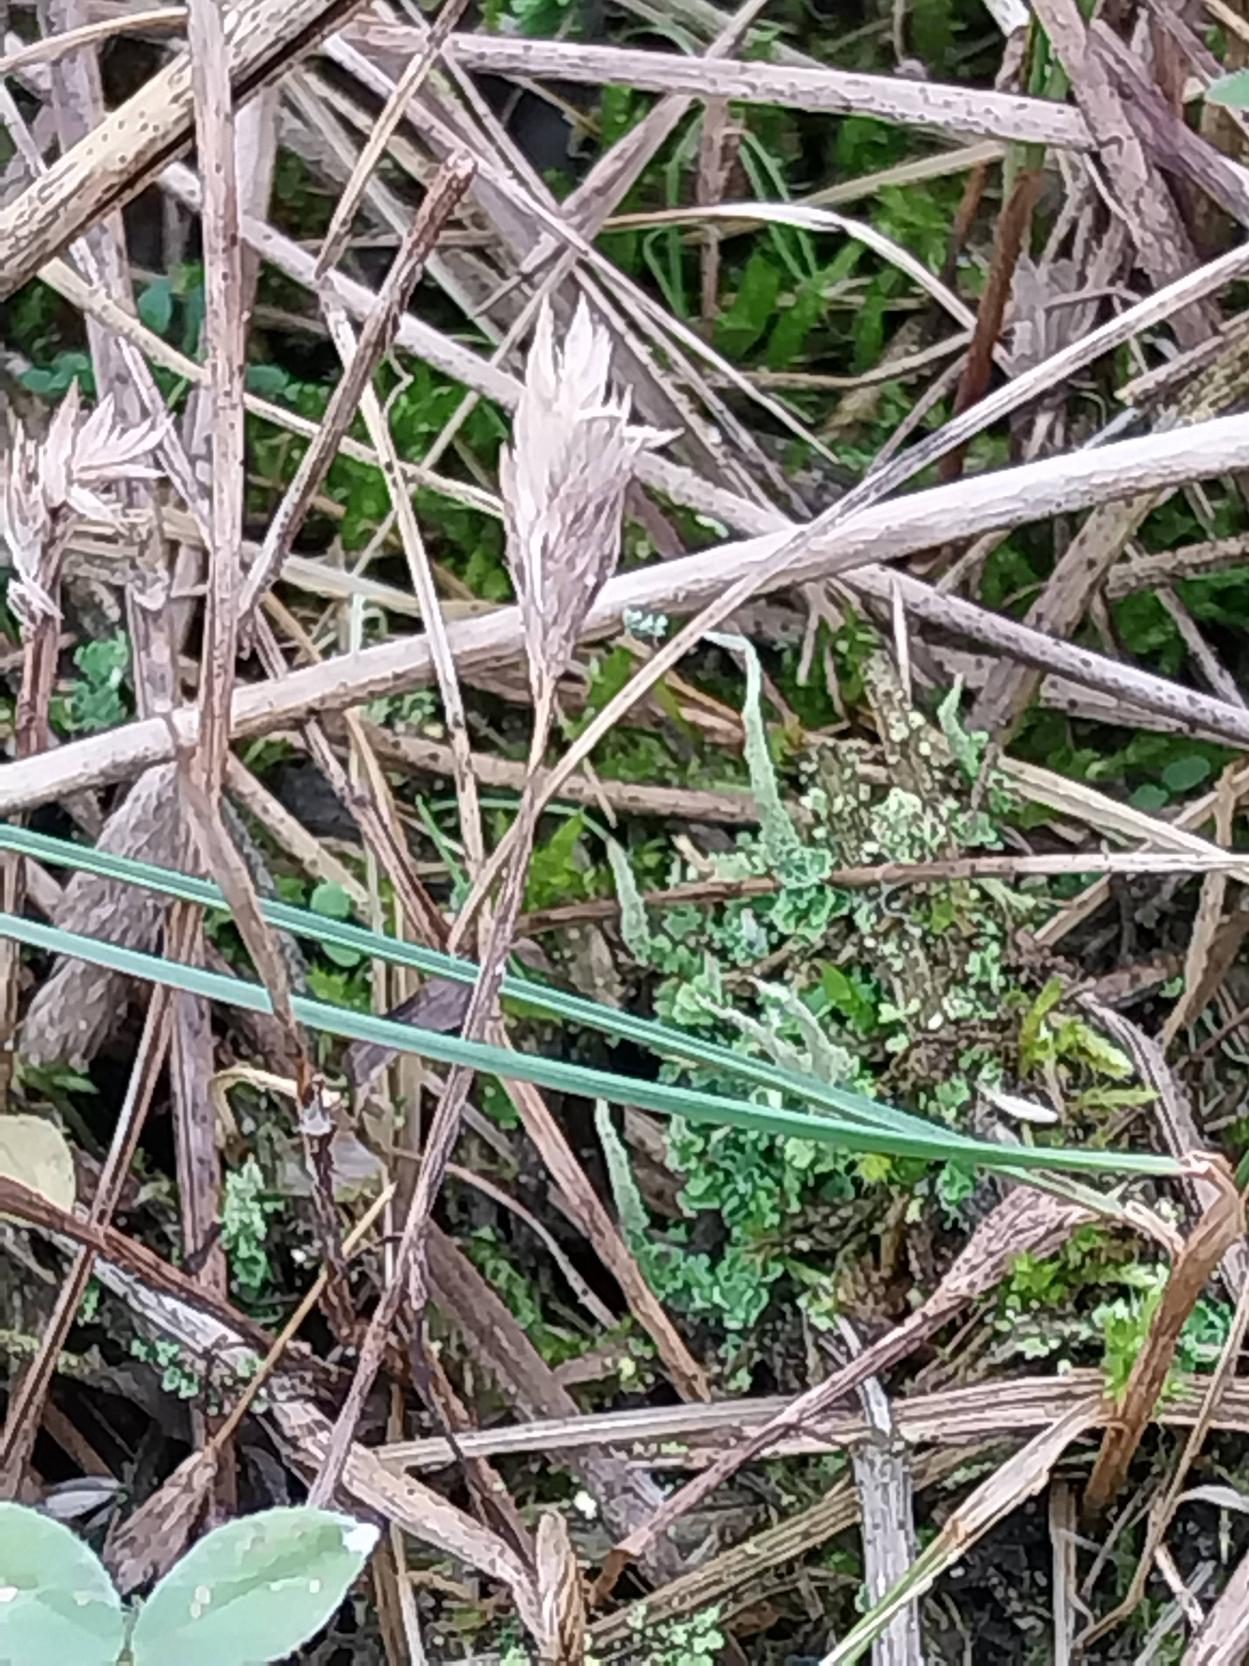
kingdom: Plantae
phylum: Tracheophyta
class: Liliopsida
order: Poales
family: Poaceae
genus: Phleum
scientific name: Phleum arenarium
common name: Sand-rottehale
